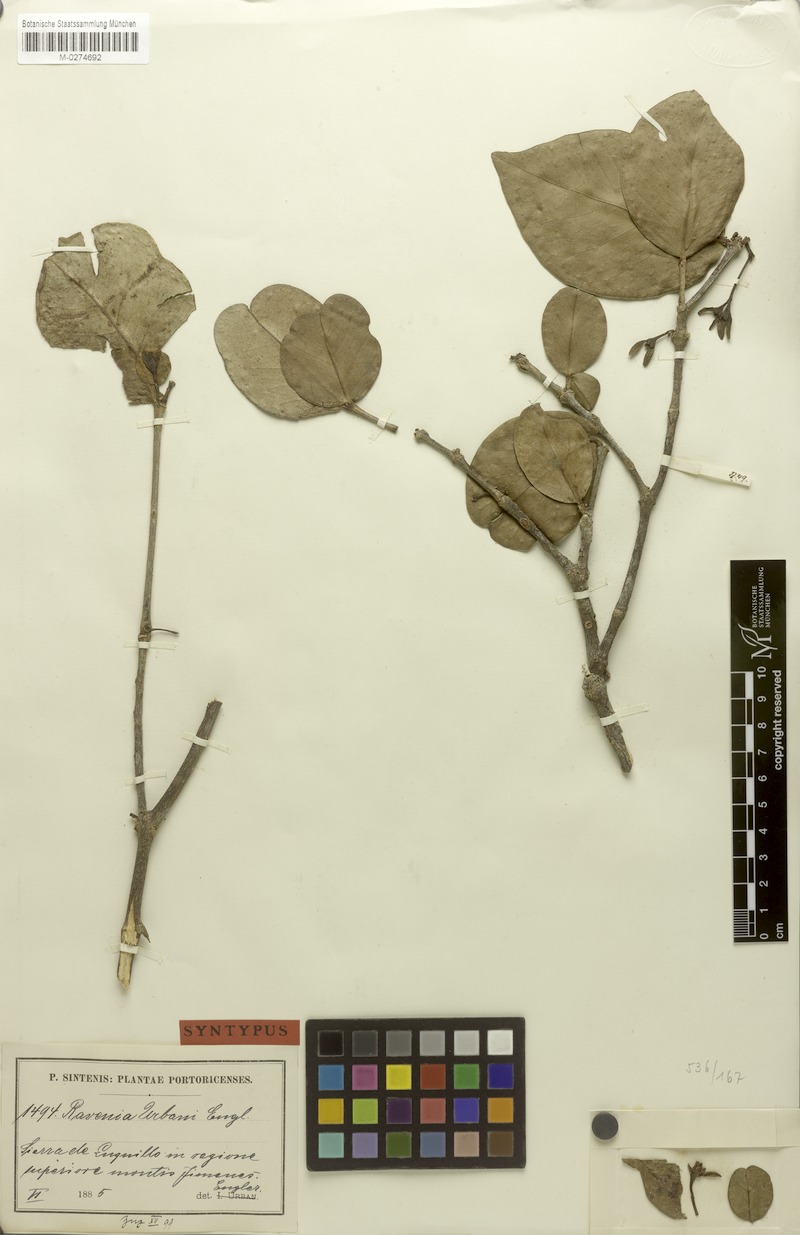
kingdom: Plantae
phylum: Tracheophyta
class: Magnoliopsida
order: Sapindales
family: Rutaceae
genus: Ravenia
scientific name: Ravenia urbanii
